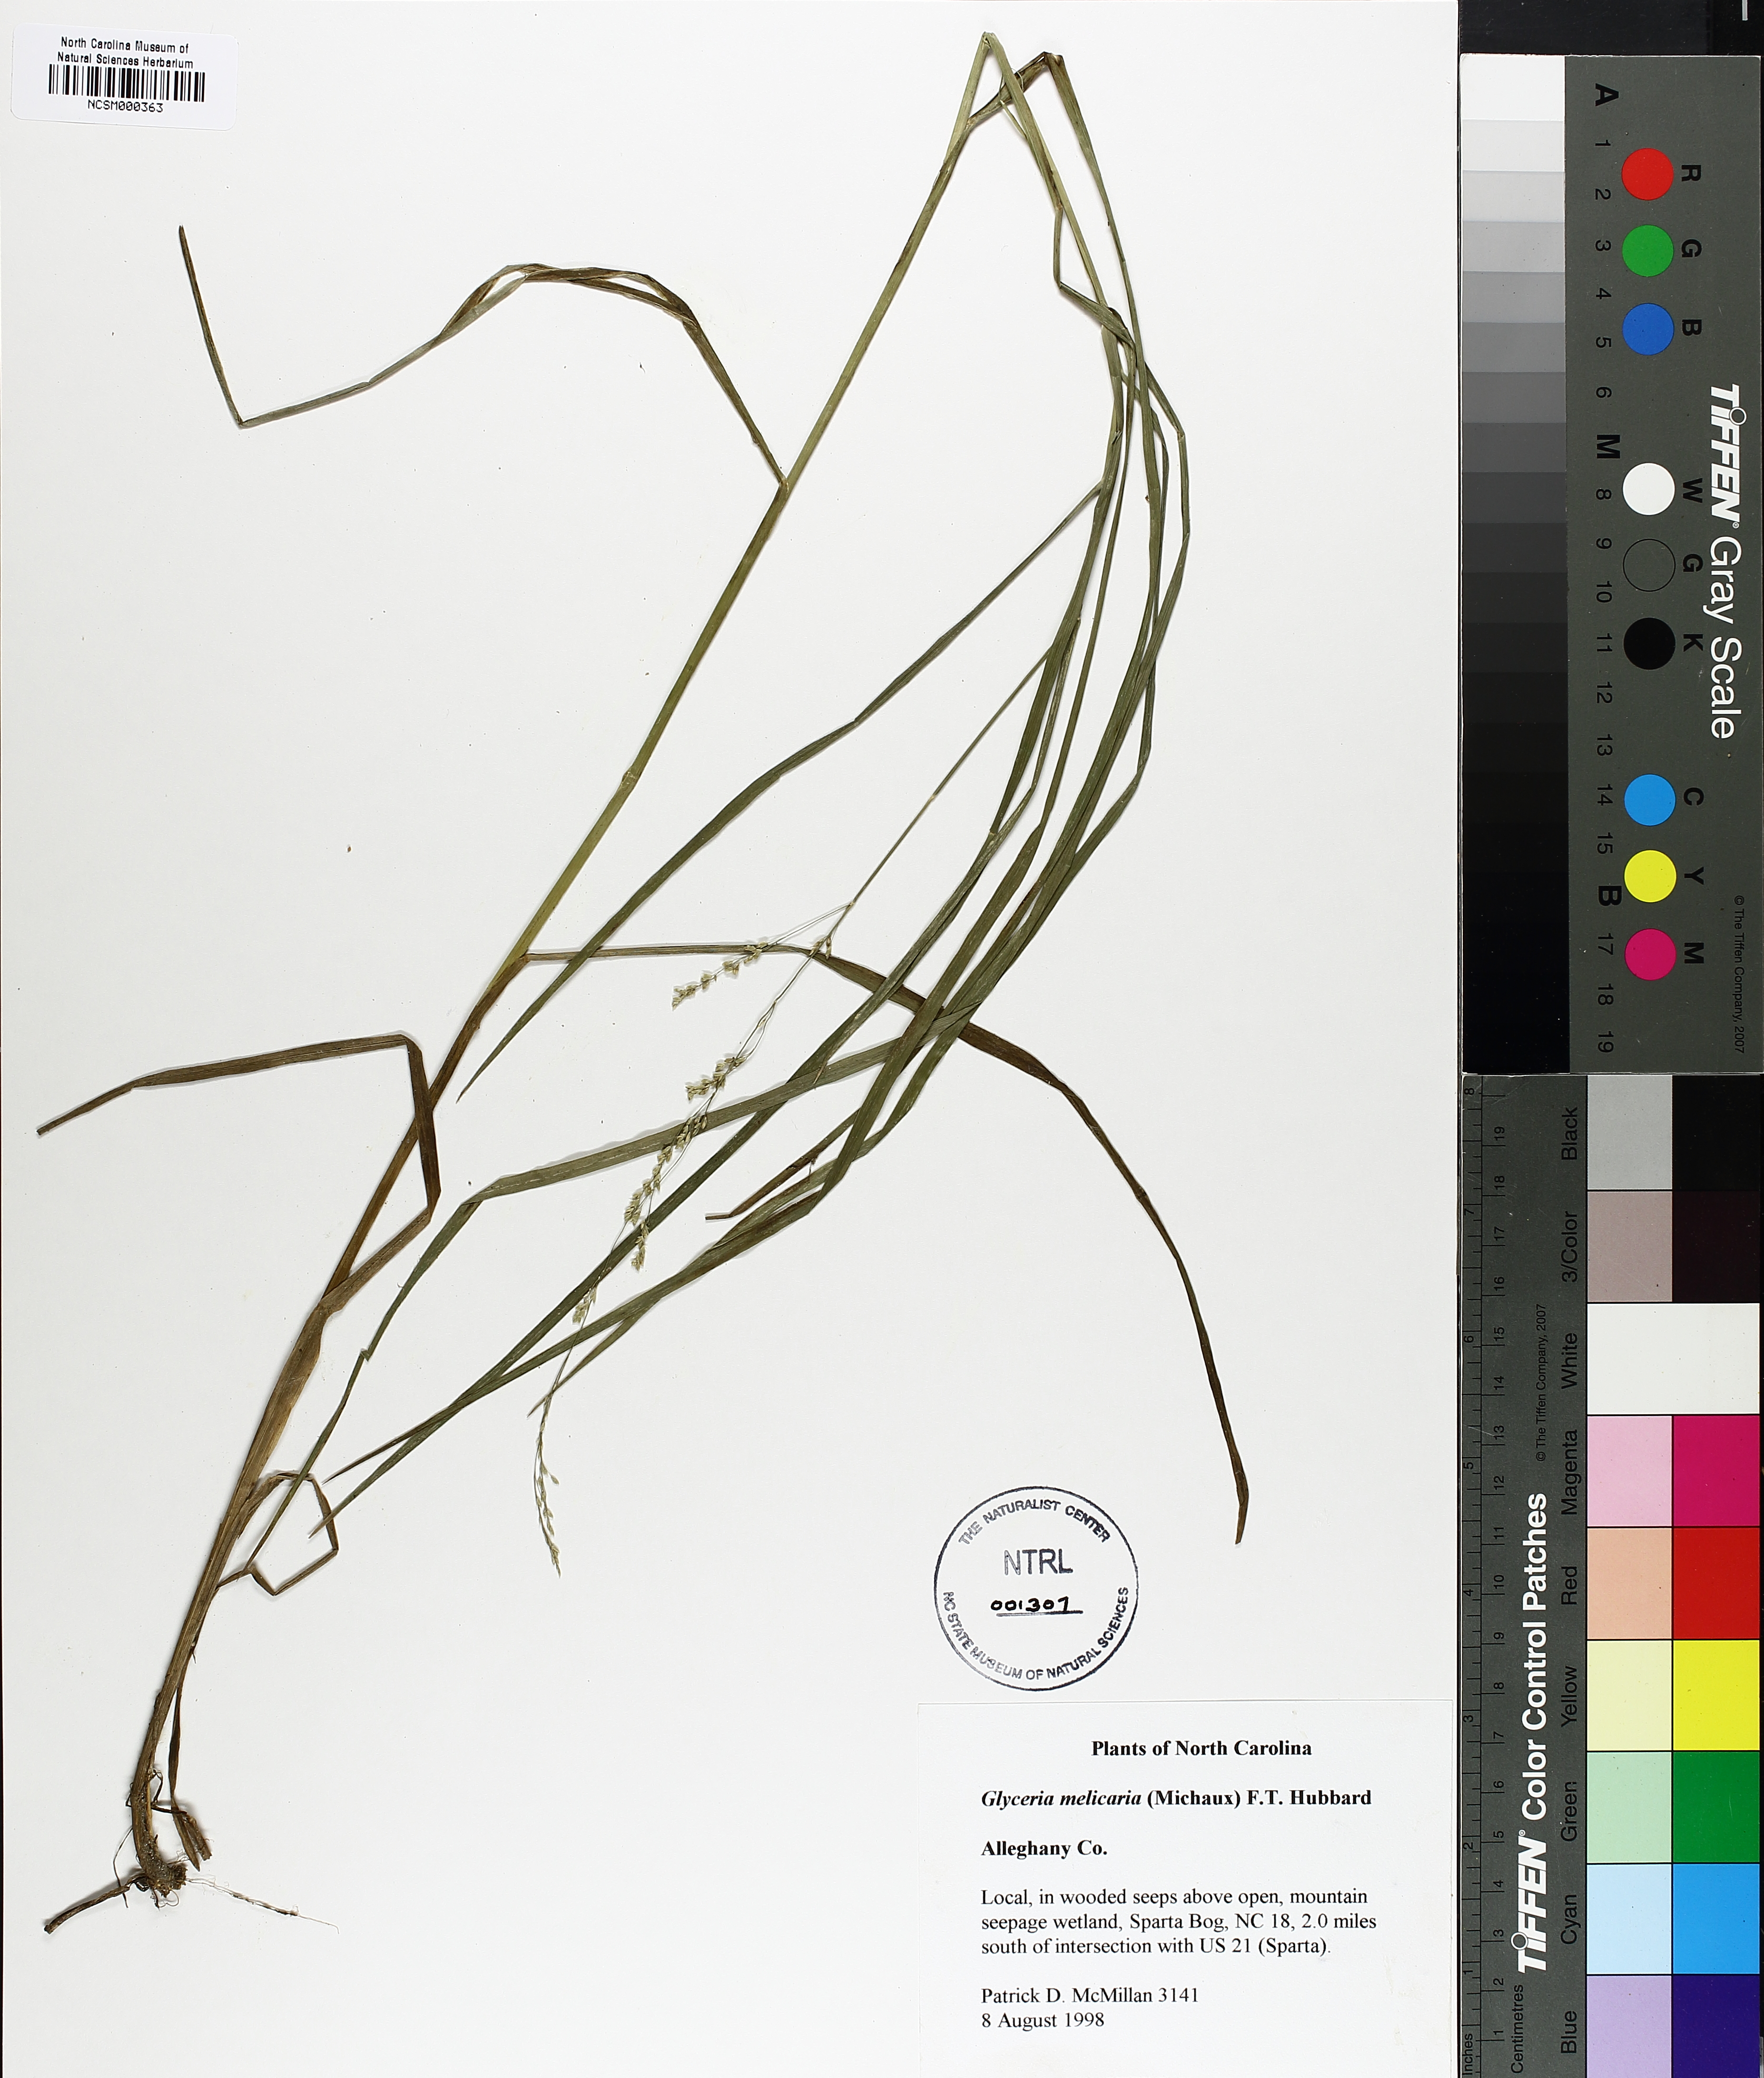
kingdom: Plantae
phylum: Tracheophyta
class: Liliopsida
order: Poales
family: Poaceae
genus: Glyceria
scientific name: Glyceria melicaria
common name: Long mannagrass
